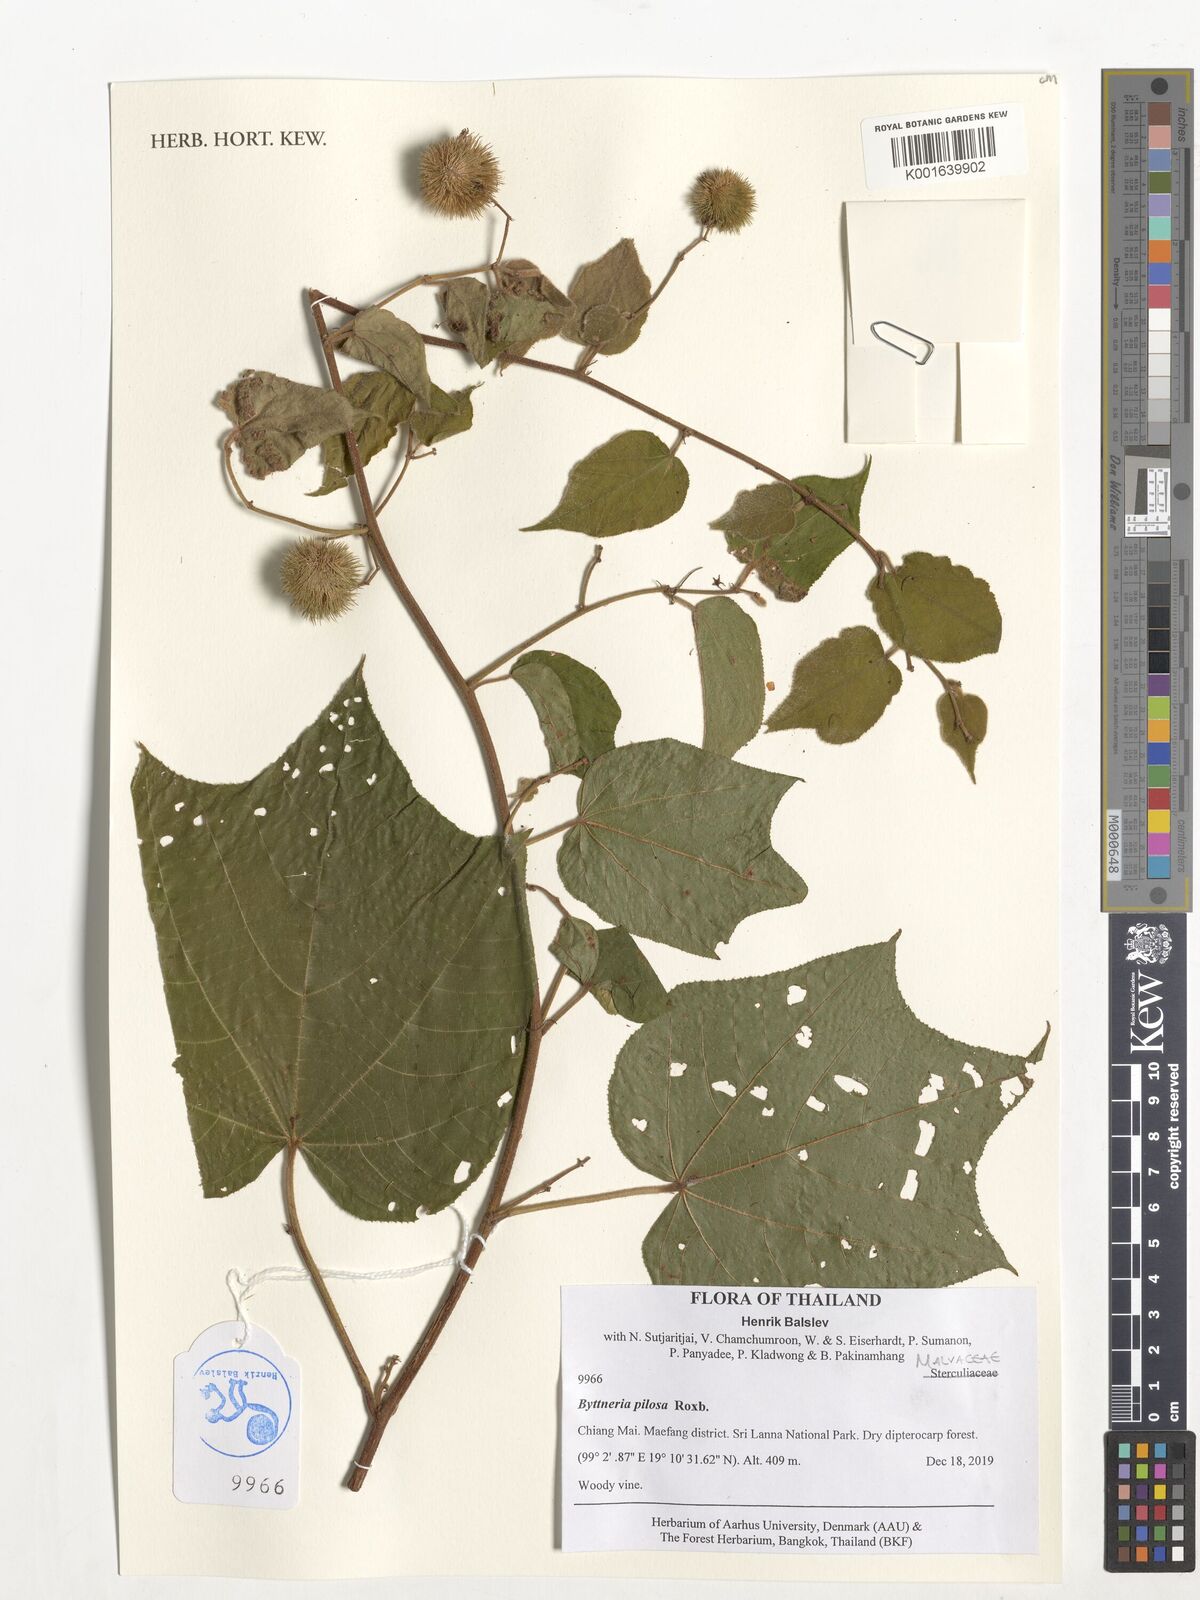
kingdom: Plantae
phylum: Tracheophyta
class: Magnoliopsida
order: Malvales
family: Malvaceae
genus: Byttneria
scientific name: Byttneria pilosa
